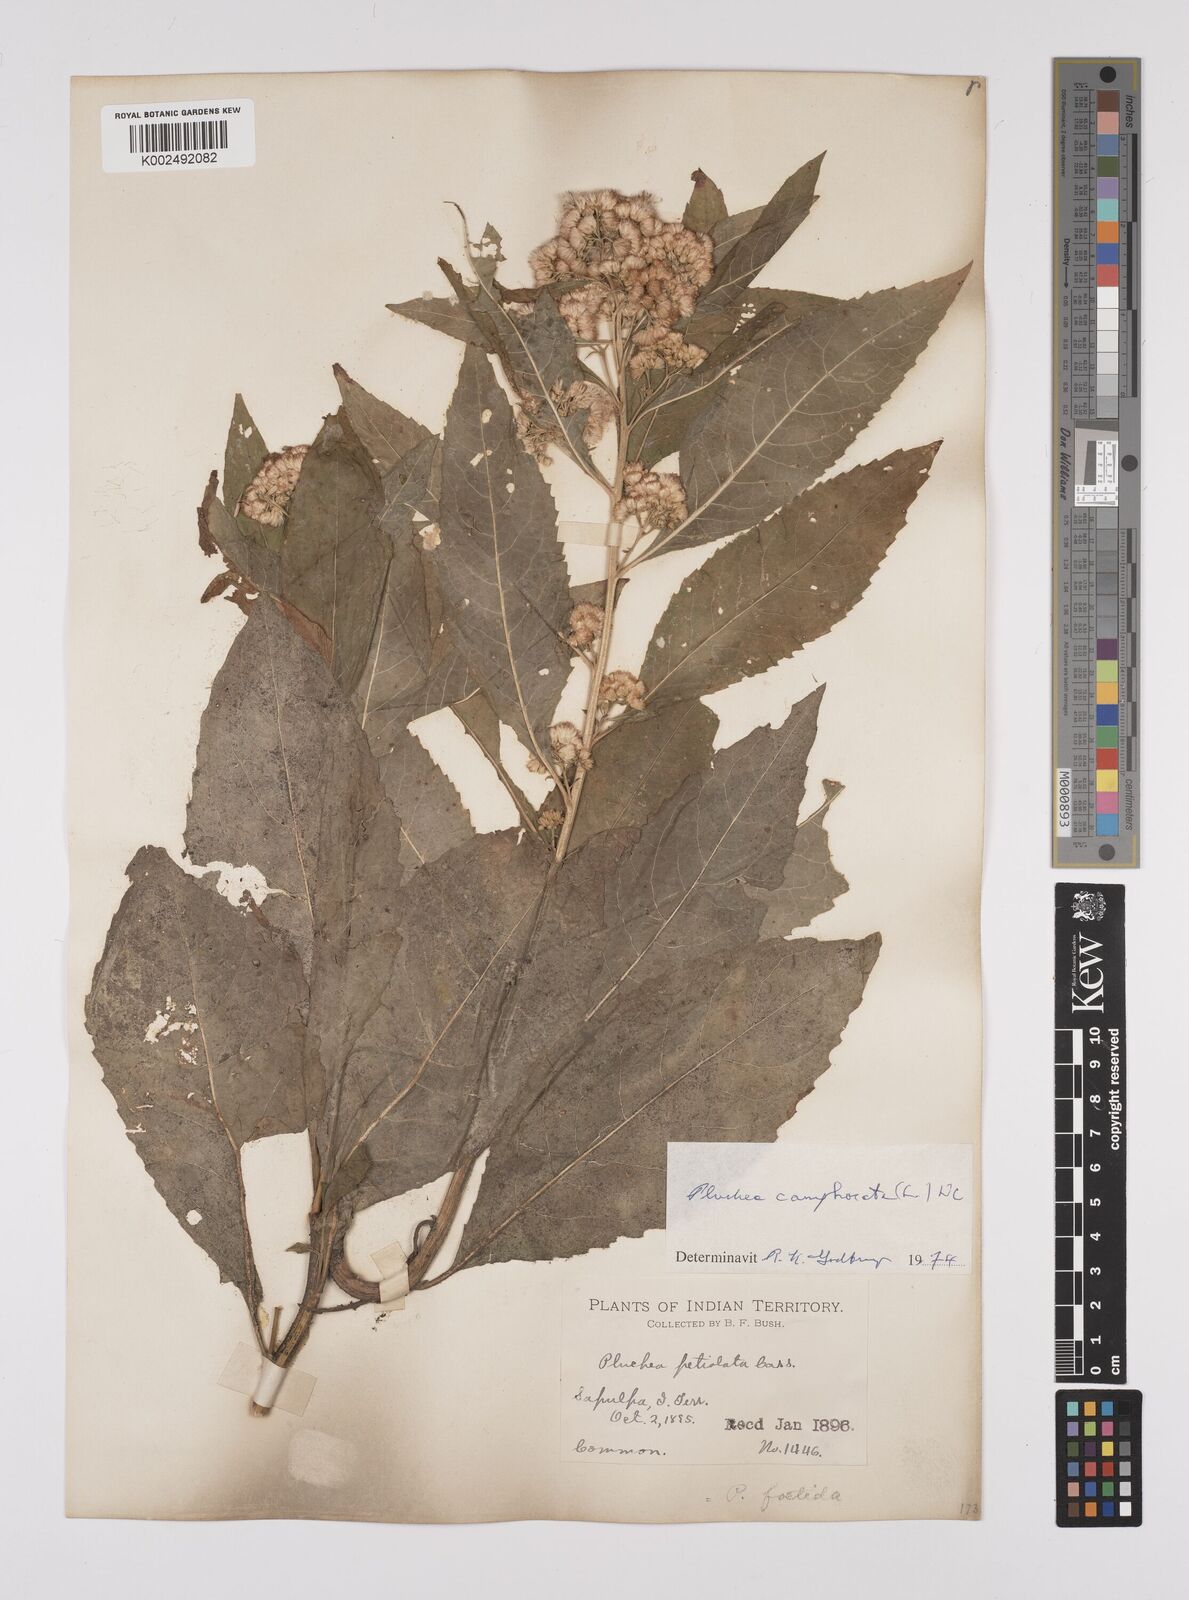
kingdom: Plantae
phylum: Tracheophyta
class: Magnoliopsida
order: Asterales
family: Asteraceae
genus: Pluchea
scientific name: Pluchea camphorata
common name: Camphor pluchea
